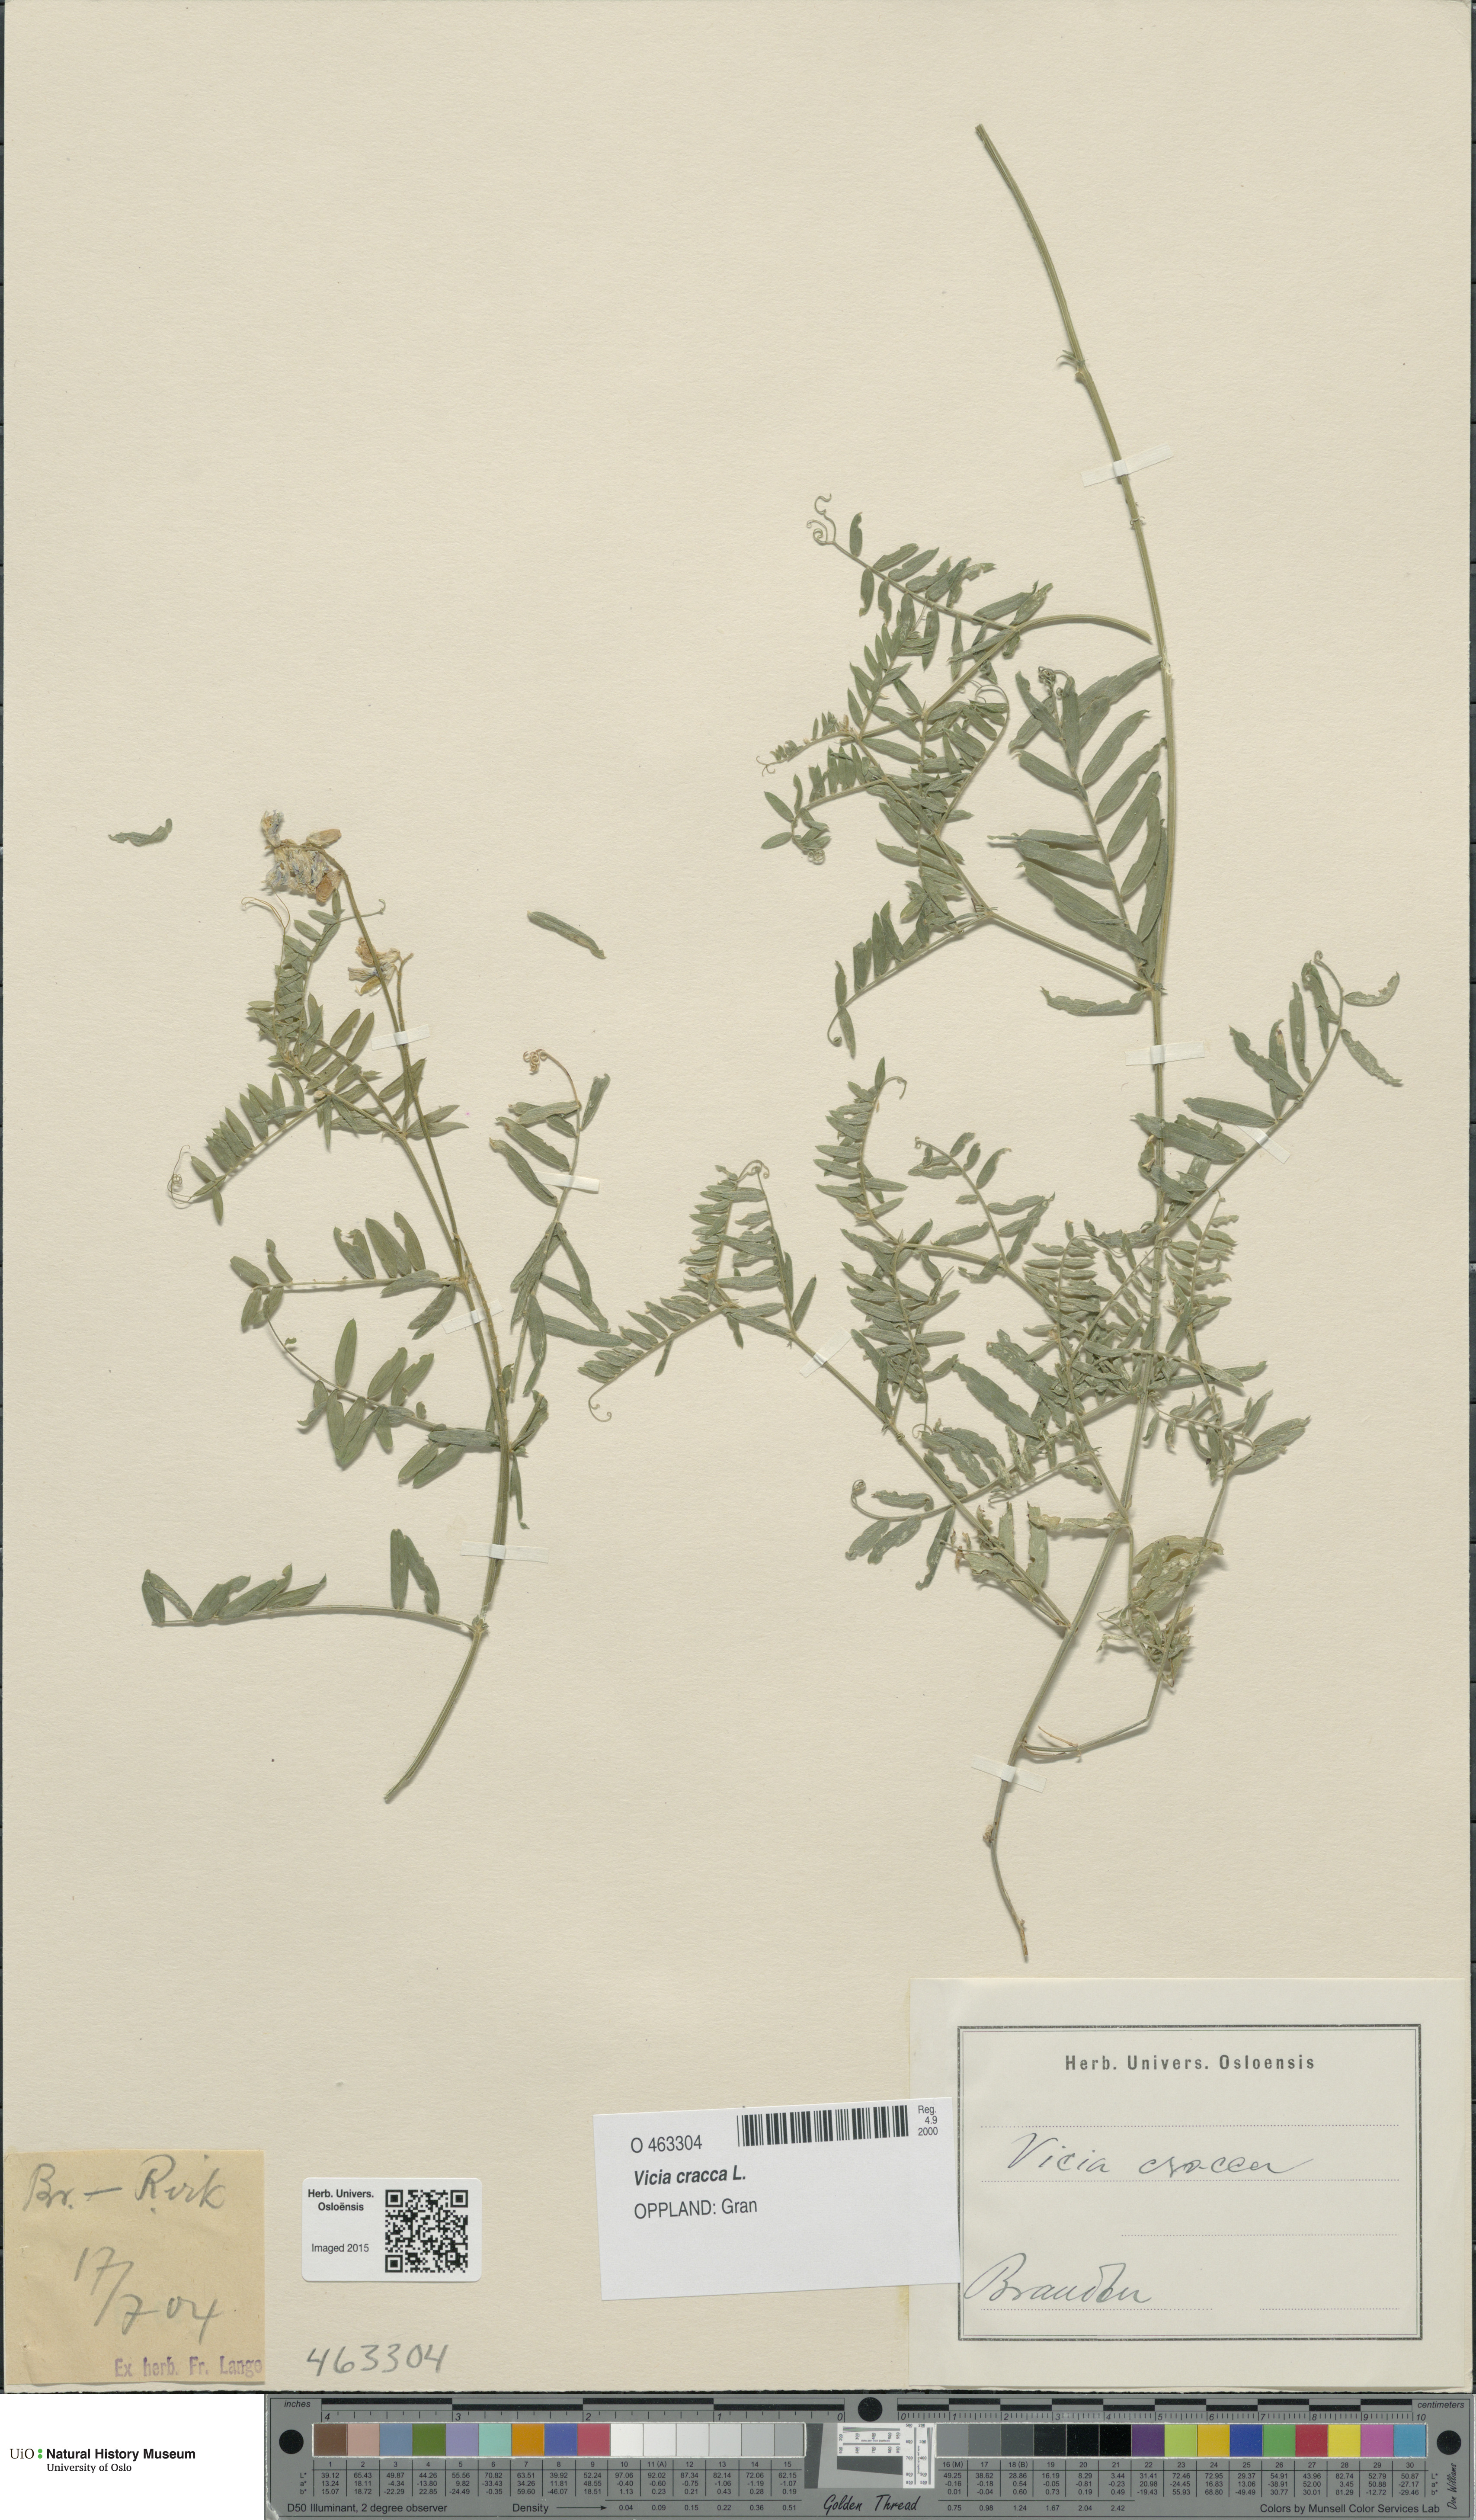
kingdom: Plantae
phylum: Tracheophyta
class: Magnoliopsida
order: Fabales
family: Fabaceae
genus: Vicia
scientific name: Vicia cracca
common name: Bird vetch
